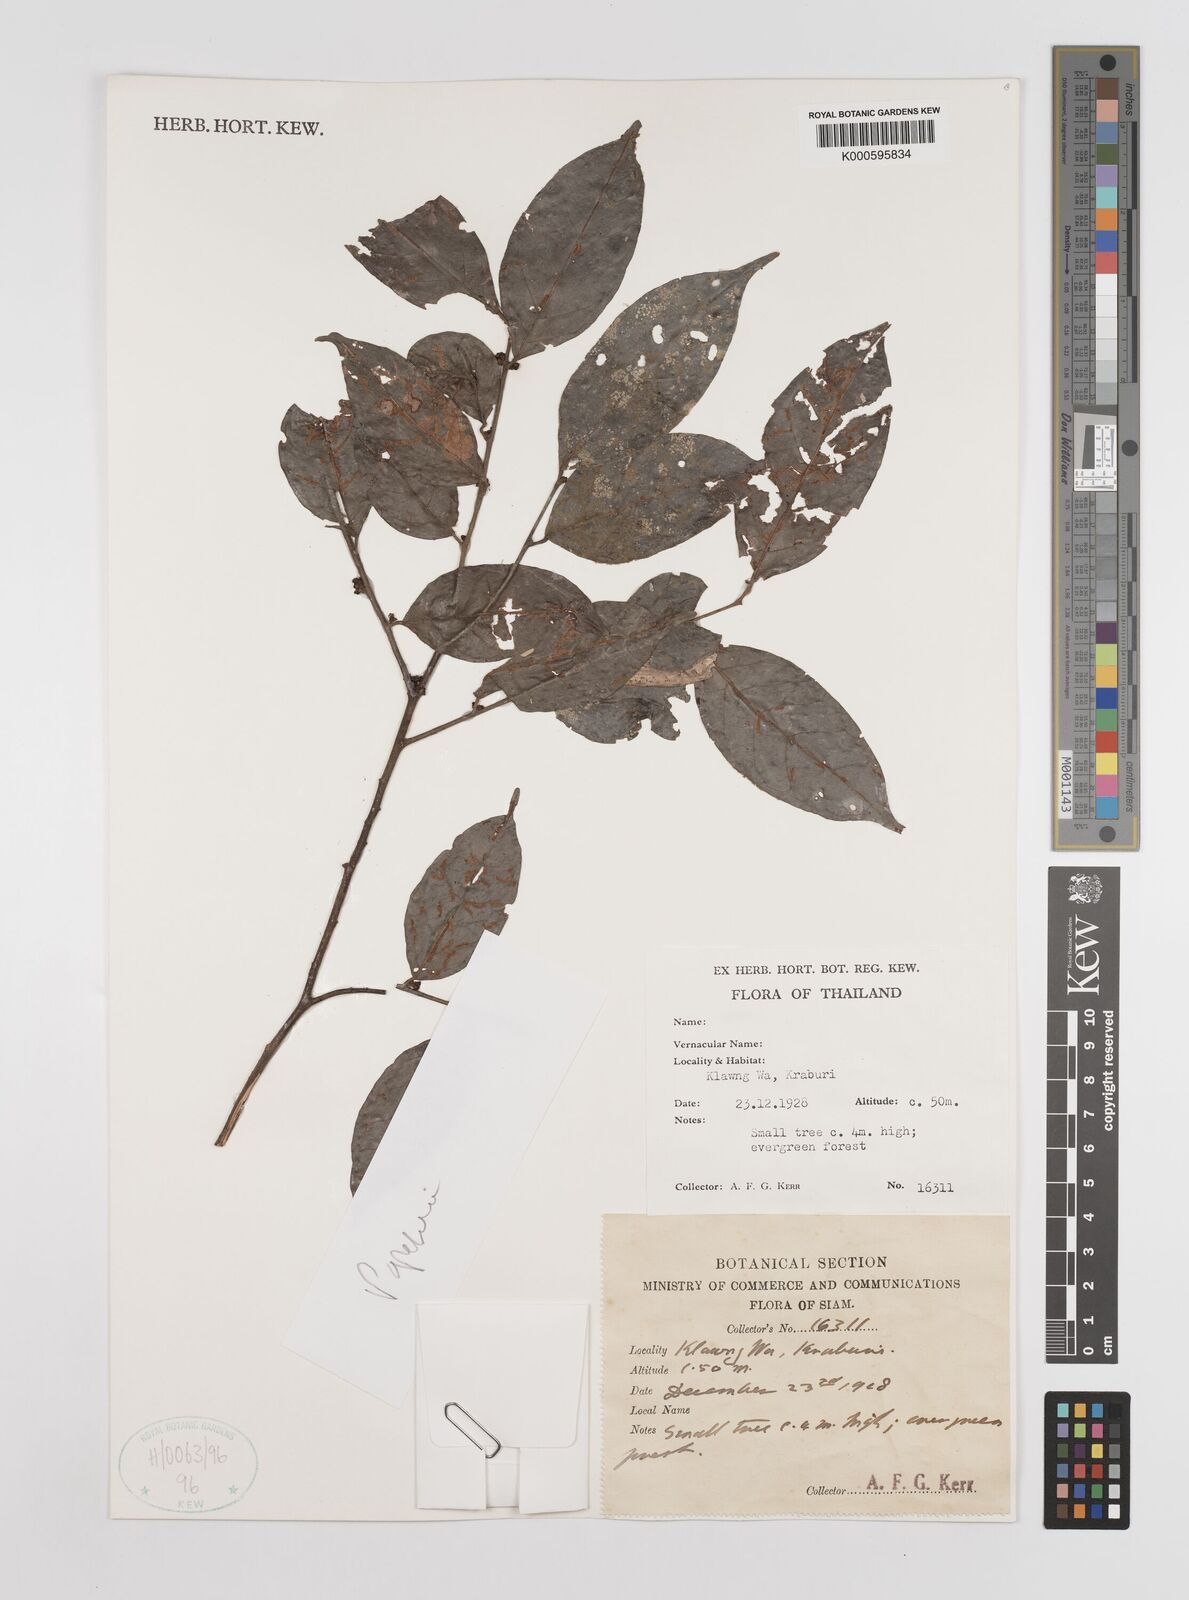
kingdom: Plantae
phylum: Tracheophyta
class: Magnoliopsida
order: Magnoliales
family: Annonaceae
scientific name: Annonaceae
